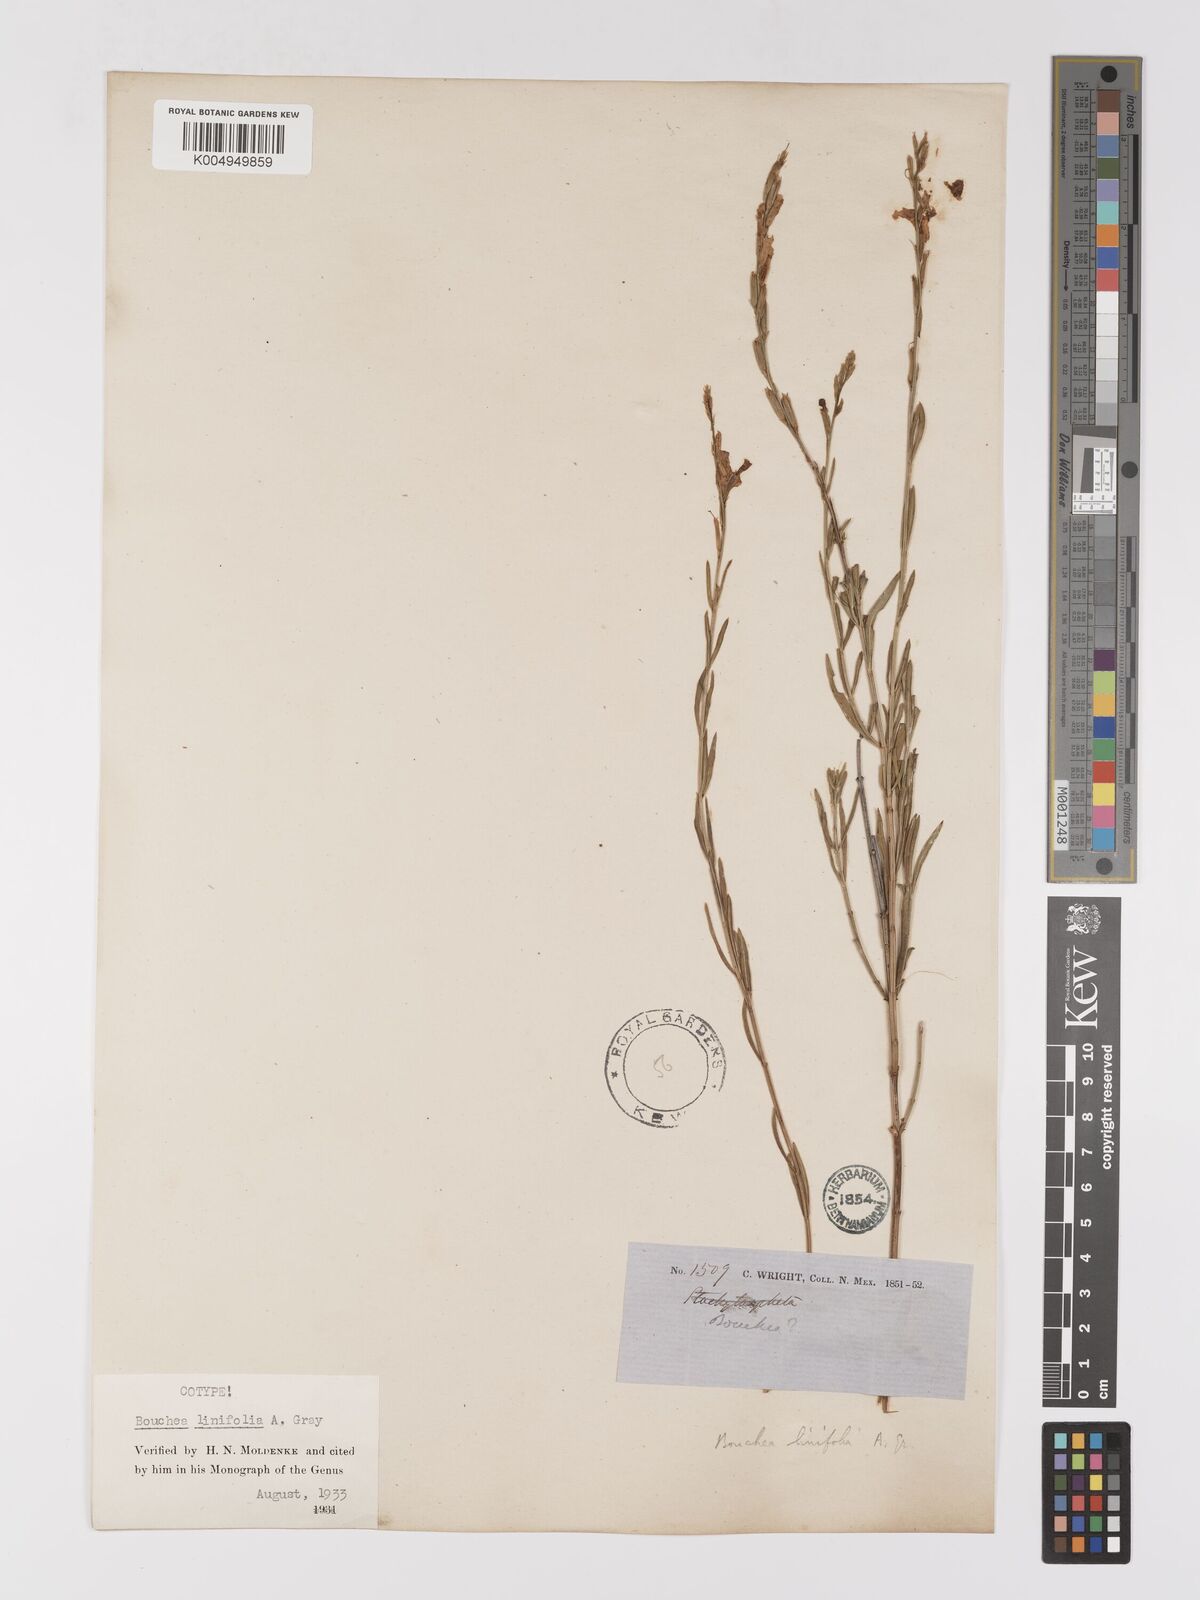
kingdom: Plantae
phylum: Tracheophyta
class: Magnoliopsida
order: Lamiales
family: Verbenaceae
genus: Bouchea
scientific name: Bouchea linifolia
